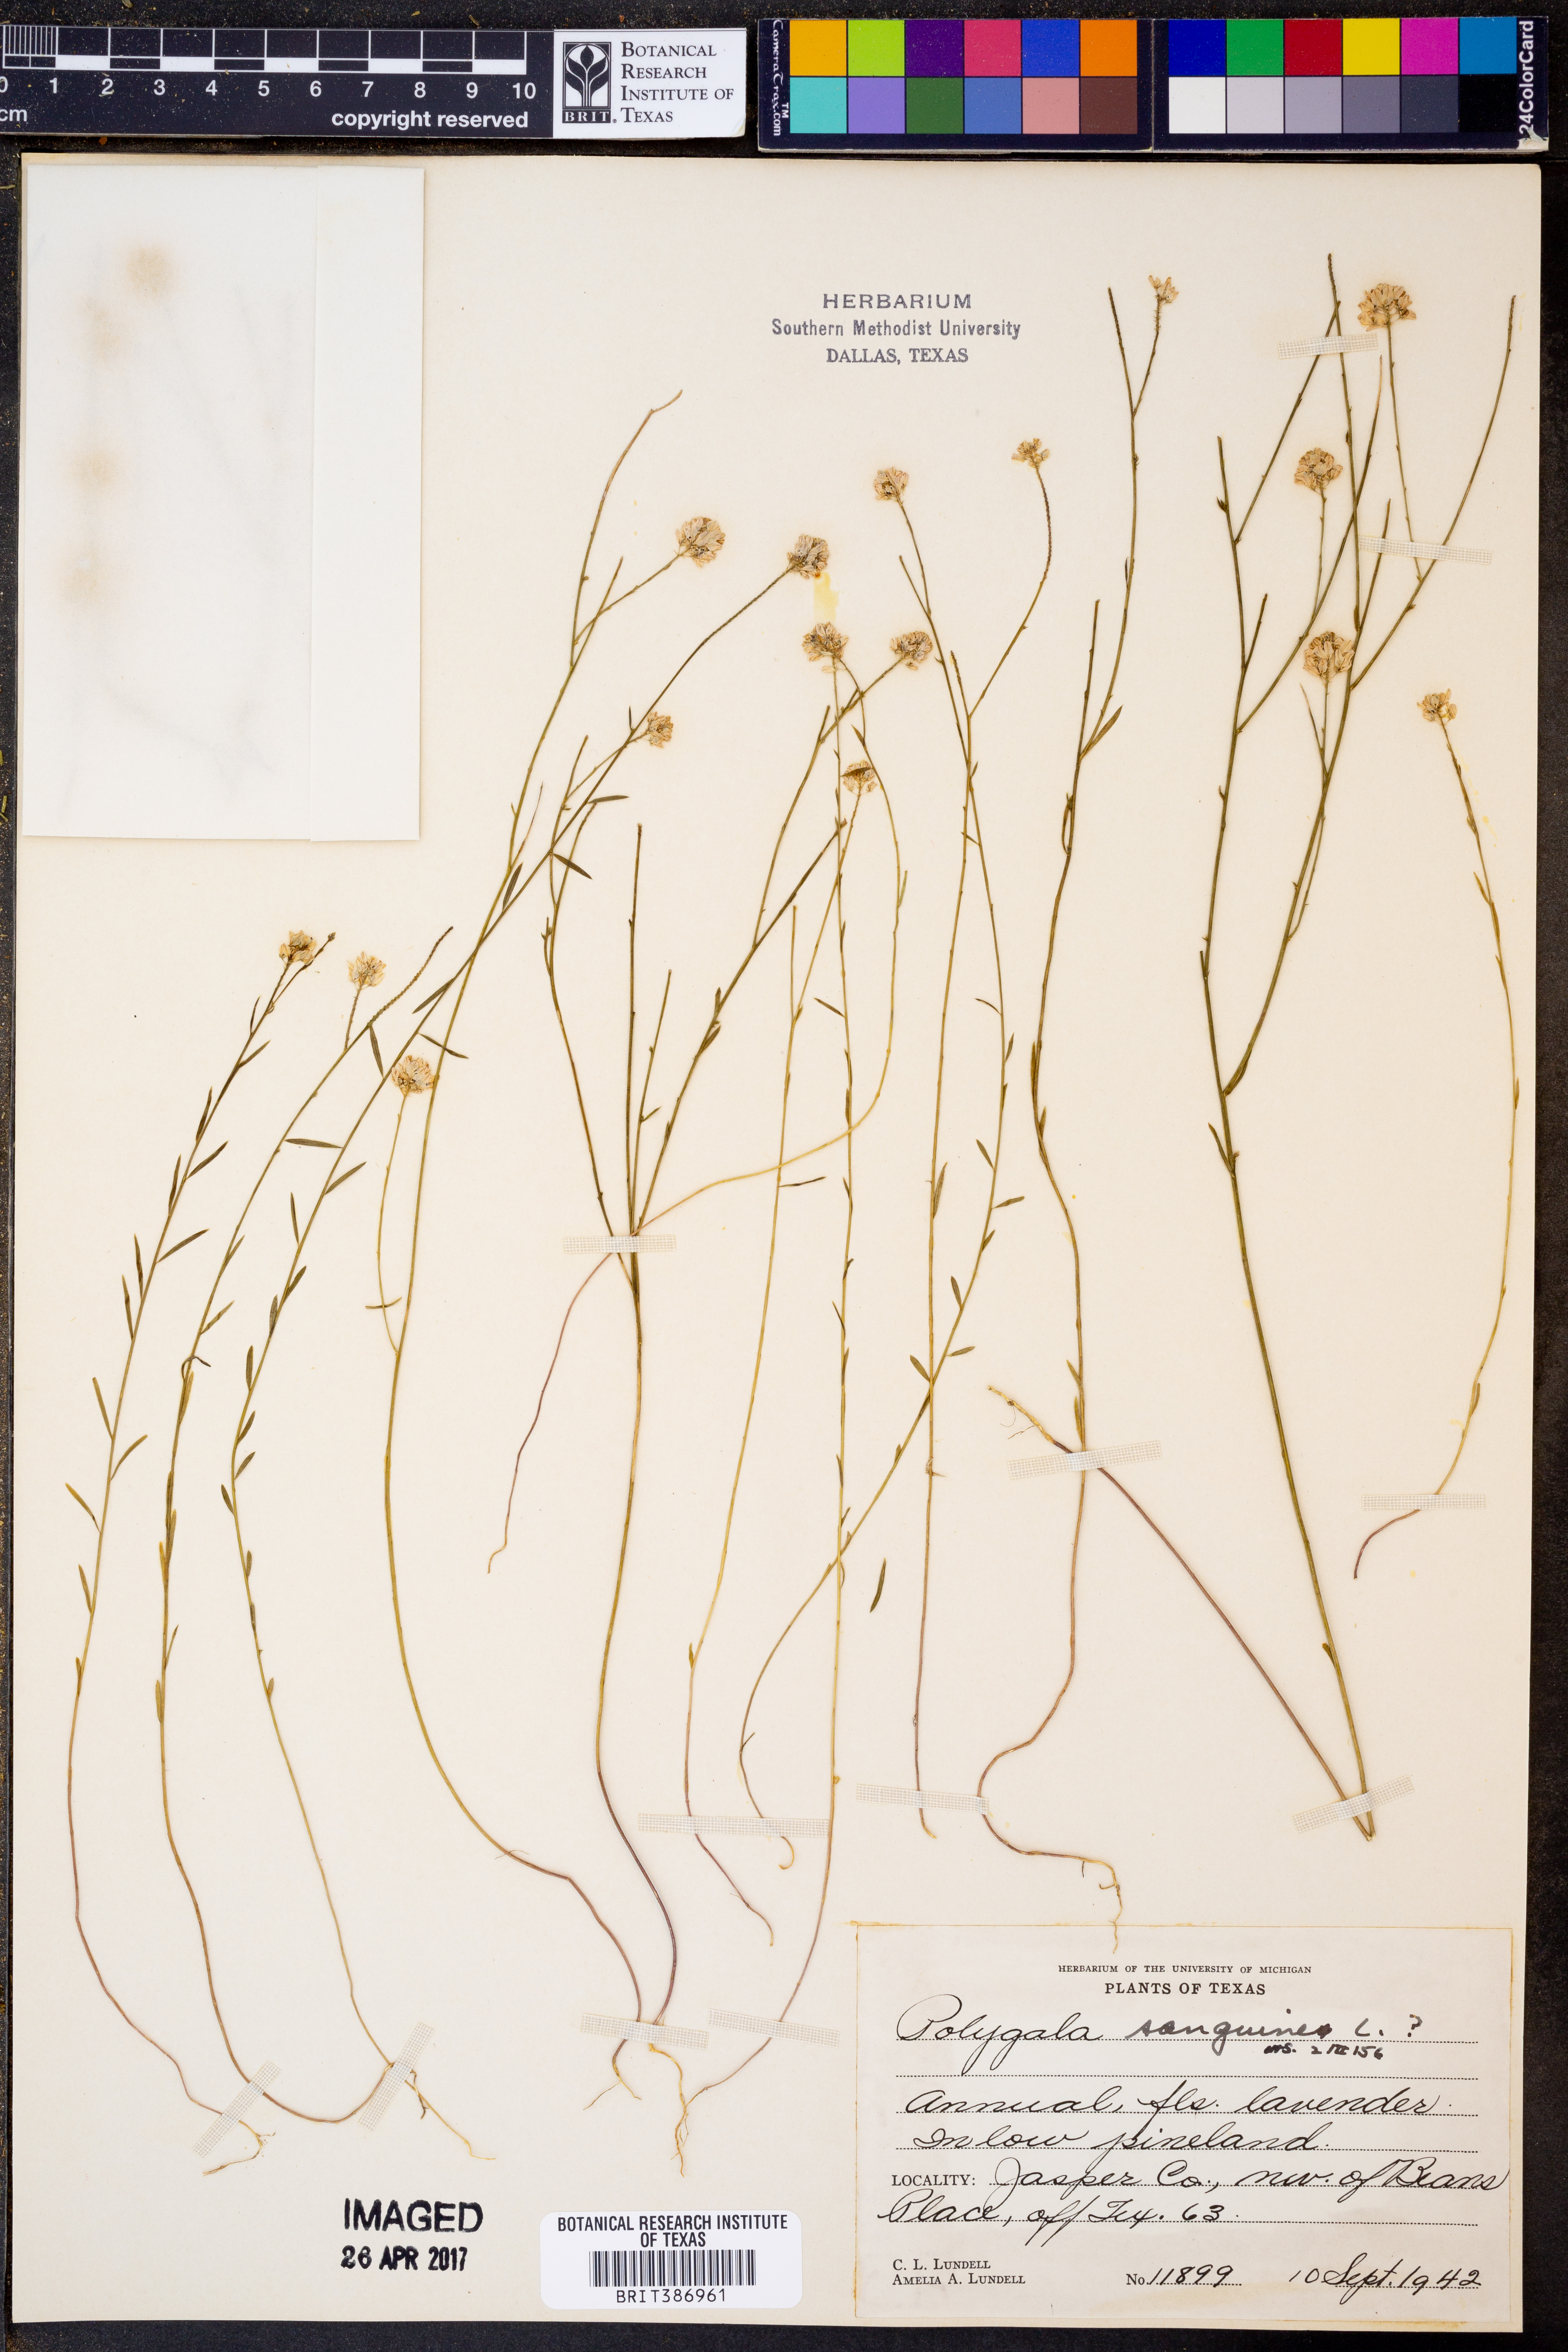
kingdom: Plantae
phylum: Tracheophyta
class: Magnoliopsida
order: Fabales
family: Polygalaceae
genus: Polygala
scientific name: Polygala sanguinea
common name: Blood milkwort
